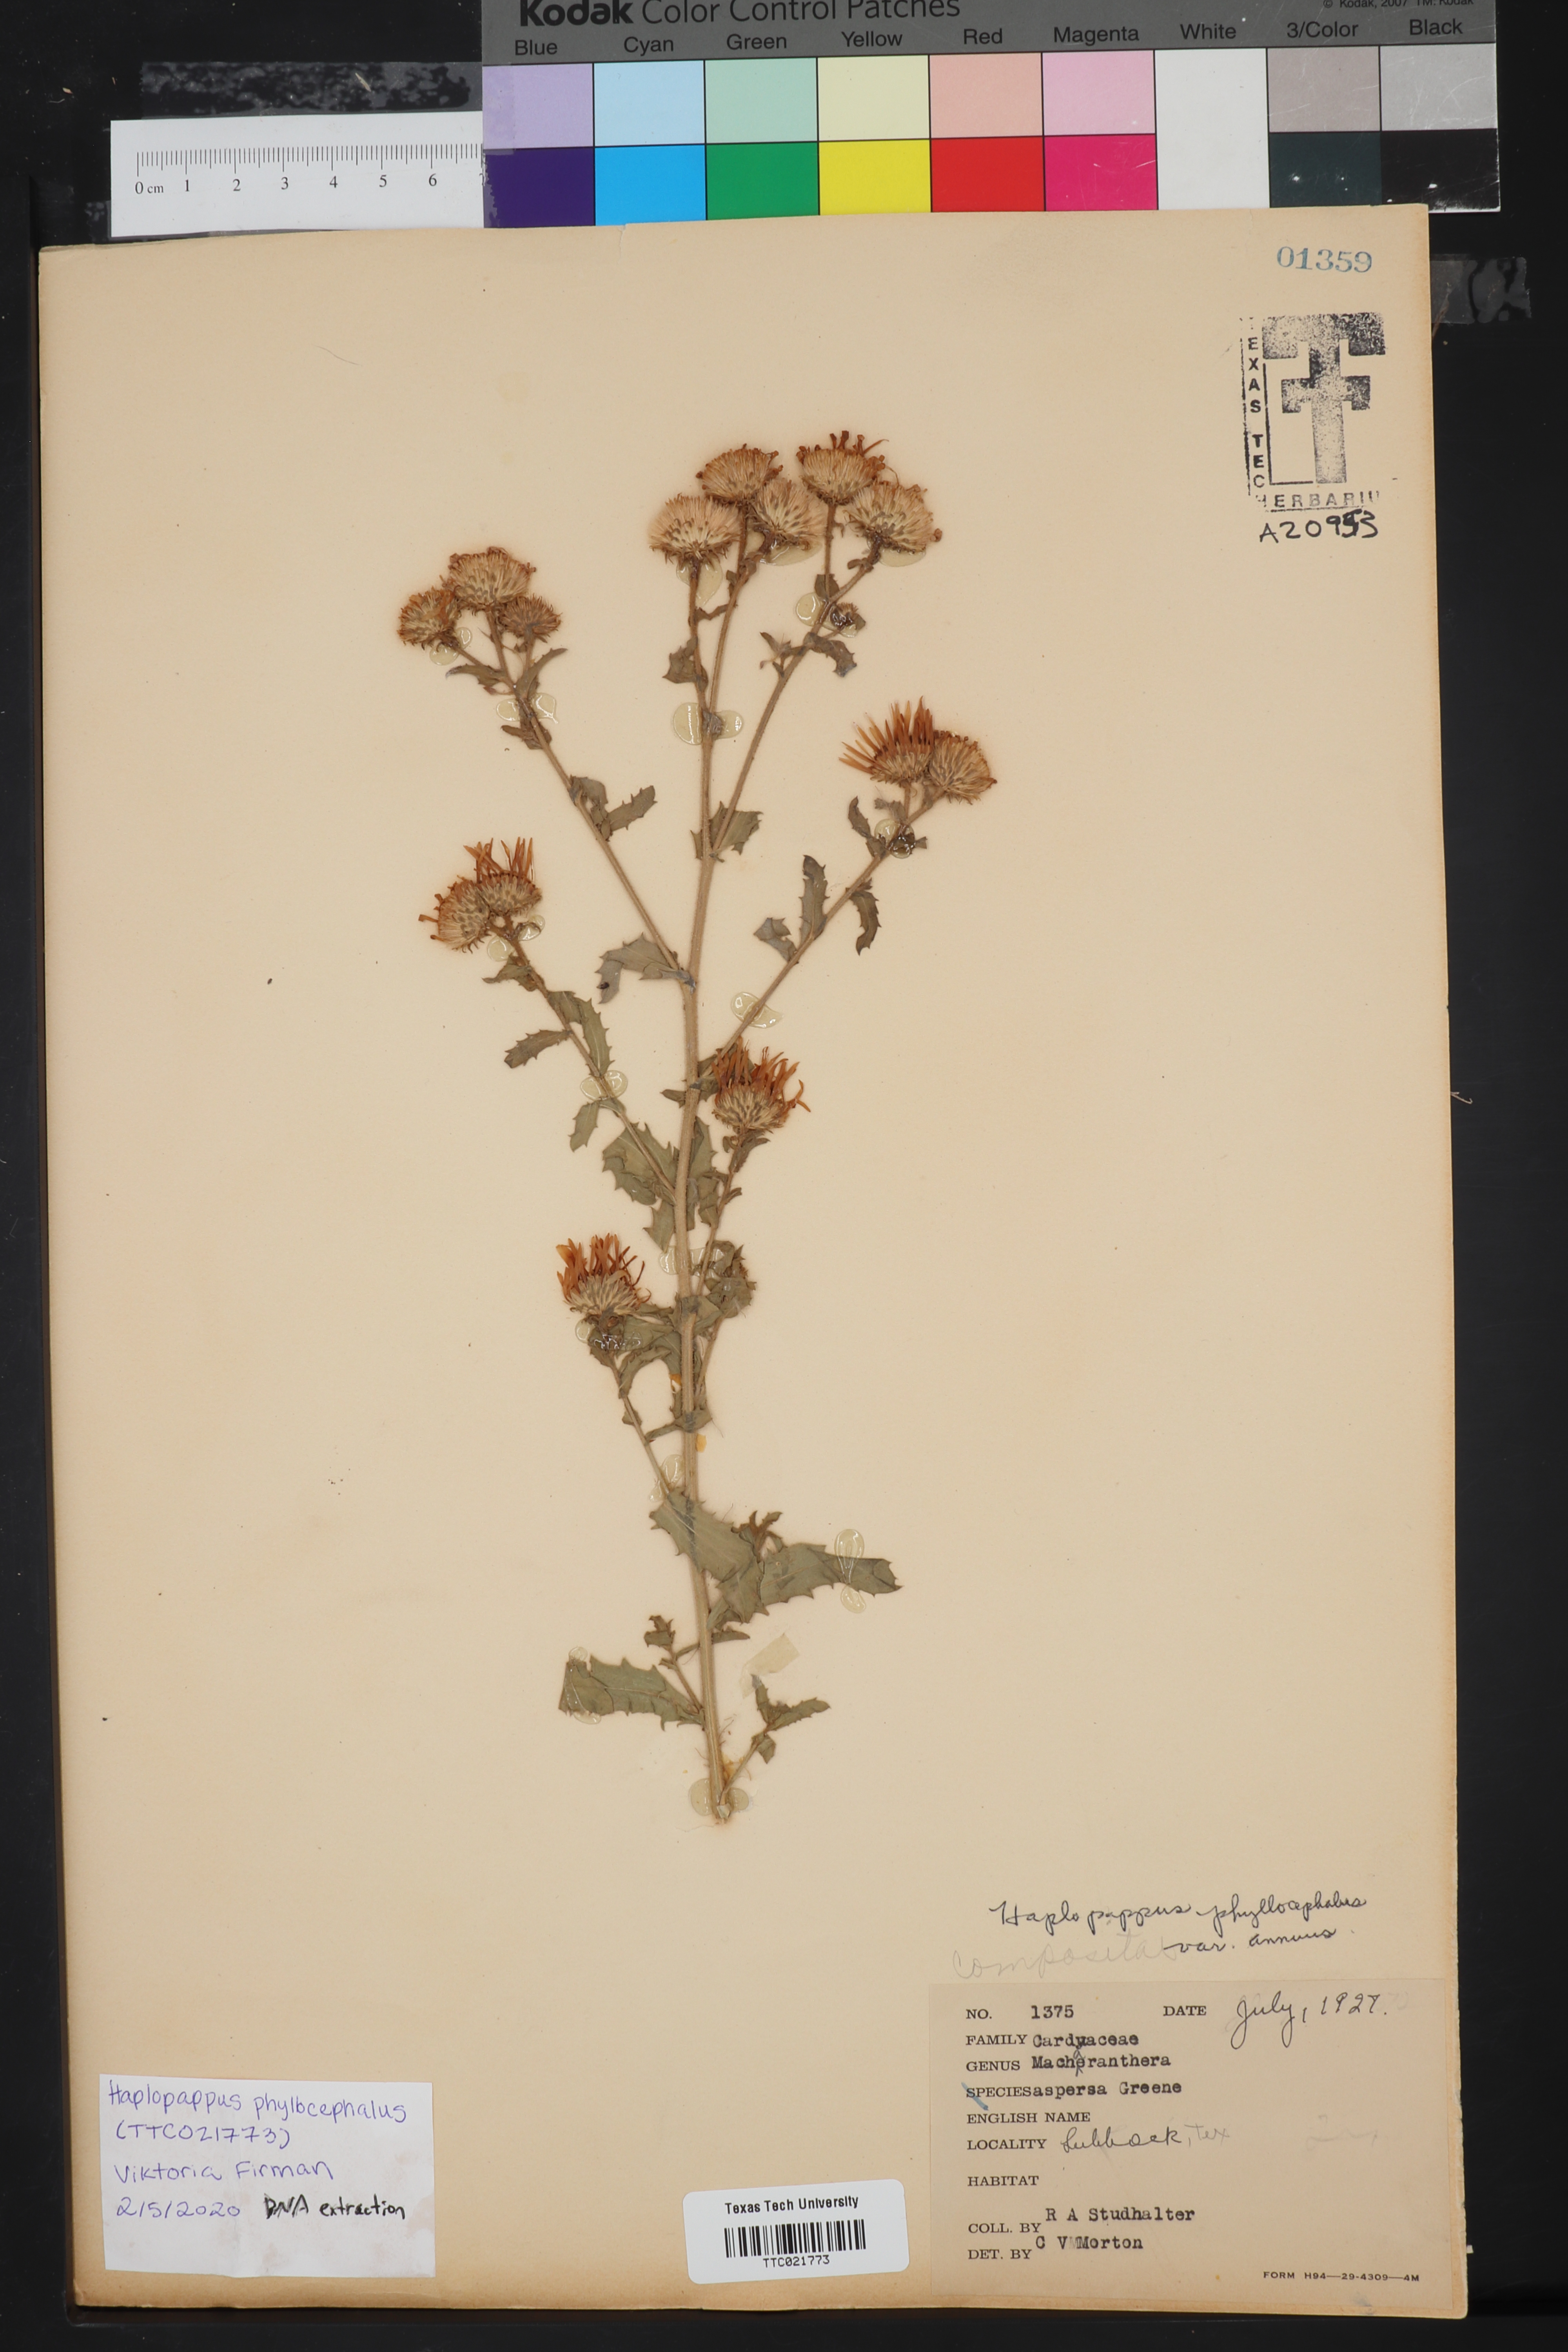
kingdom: Plantae
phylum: Tracheophyta
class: Magnoliopsida
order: Asterales
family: Asteraceae
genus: Dieteria
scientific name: Dieteria bigelovii
